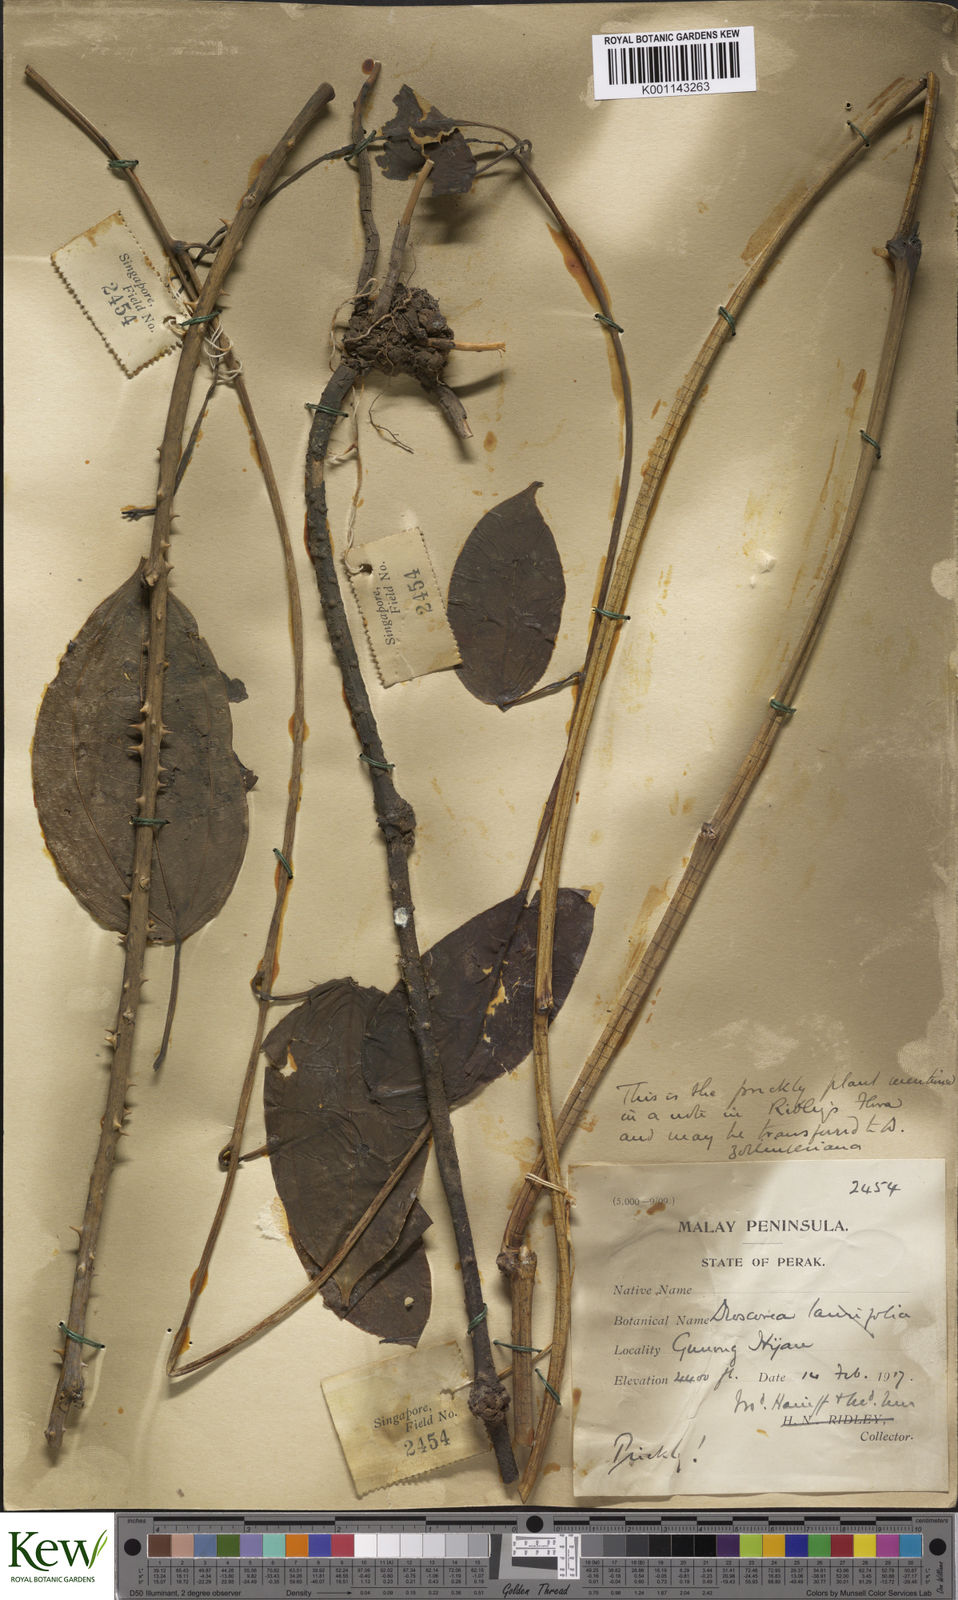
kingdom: Plantae
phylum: Tracheophyta
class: Liliopsida
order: Dioscoreales
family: Dioscoreaceae
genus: Dioscorea
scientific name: Dioscorea lamprocaula
